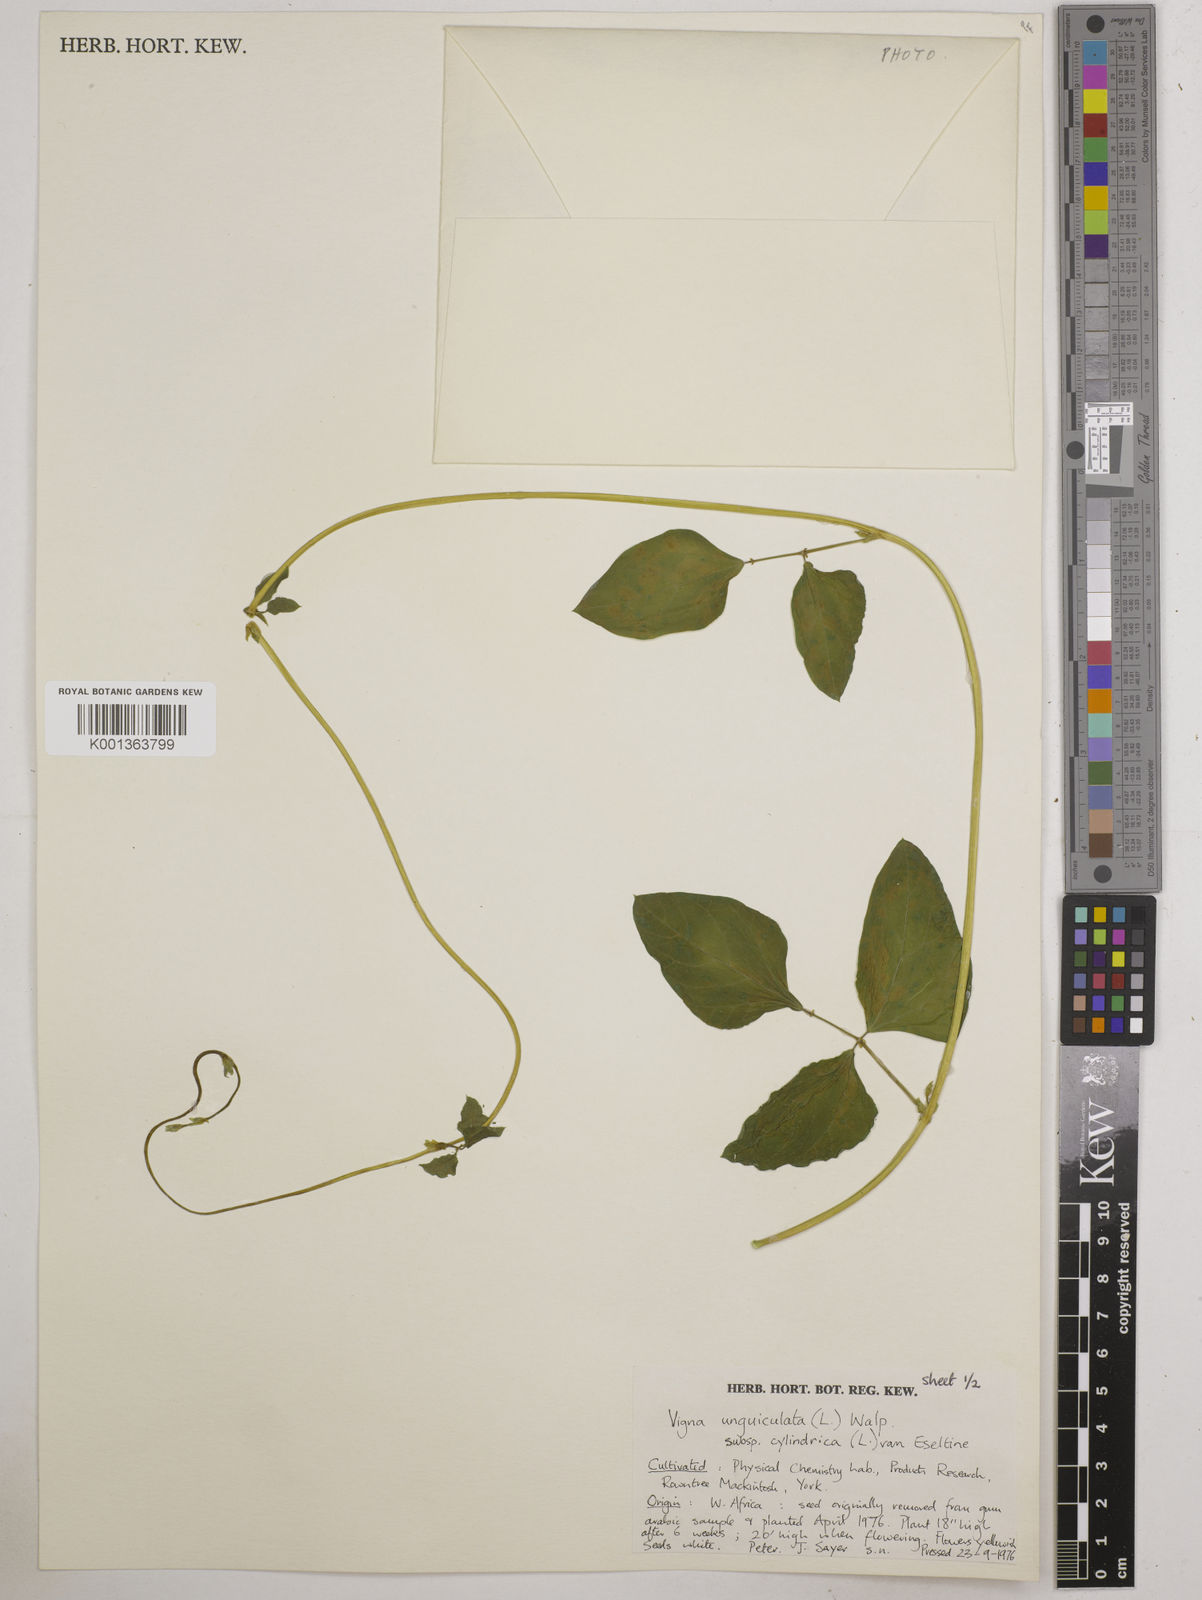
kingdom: Plantae
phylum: Tracheophyta
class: Magnoliopsida
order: Fabales
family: Fabaceae
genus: Vigna
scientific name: Vigna
